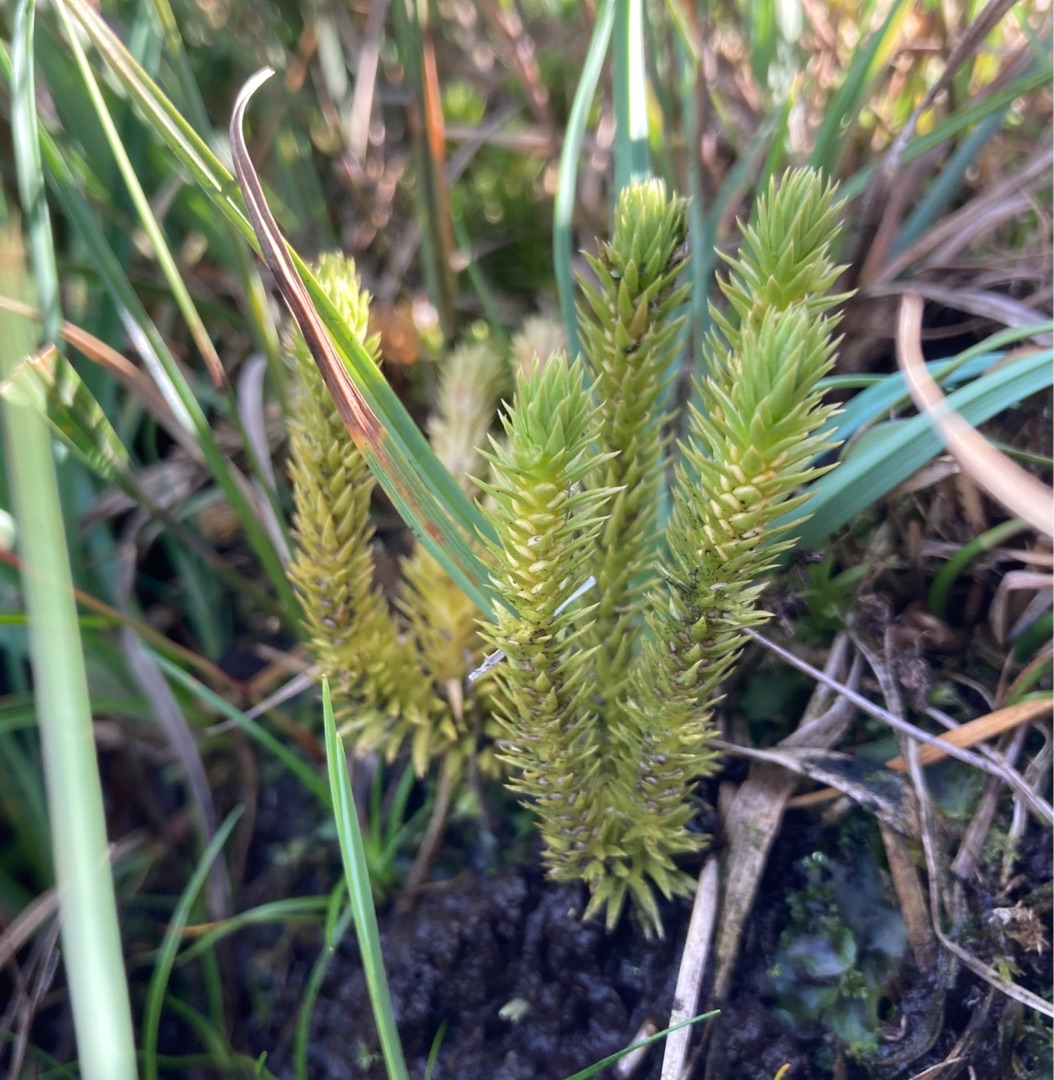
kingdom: Plantae
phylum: Tracheophyta
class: Lycopodiopsida
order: Lycopodiales
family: Lycopodiaceae
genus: Huperzia
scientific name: Huperzia selago
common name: Otteradet ulvefod
